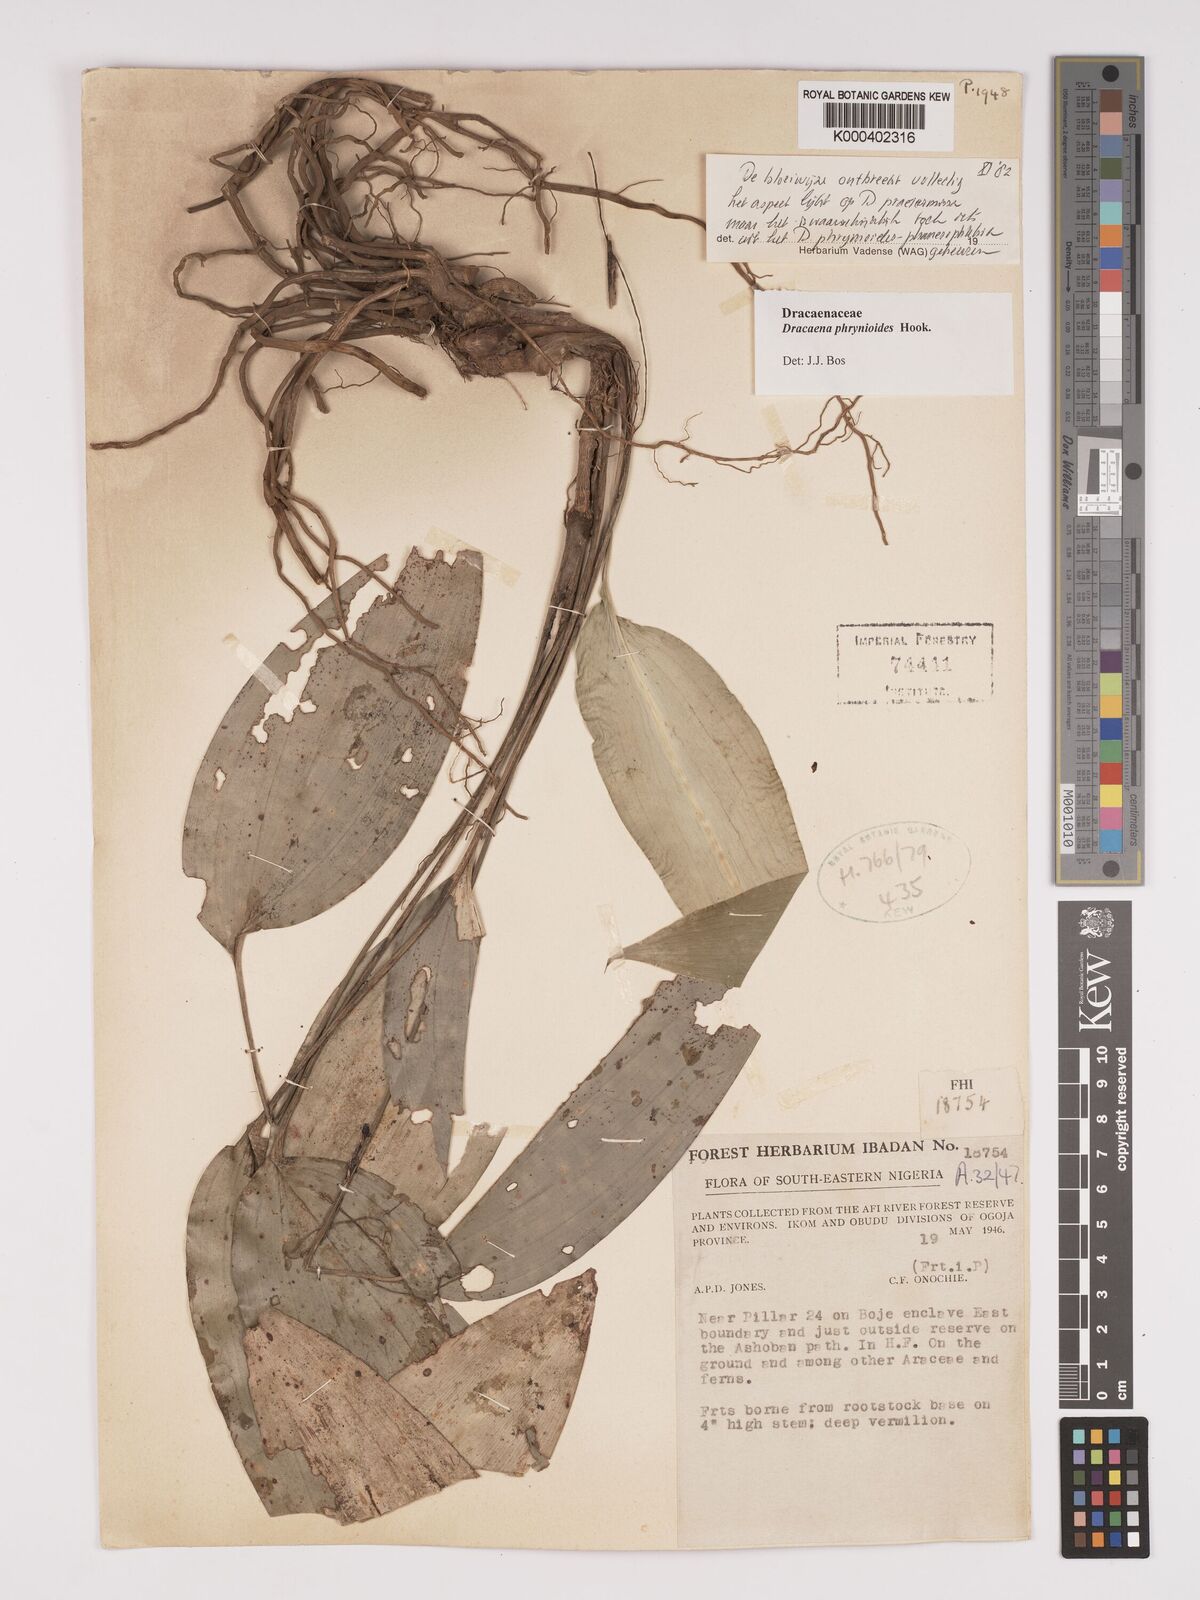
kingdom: Plantae
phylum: Tracheophyta
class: Liliopsida
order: Asparagales
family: Asparagaceae
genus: Dracaena
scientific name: Dracaena phrynioides
